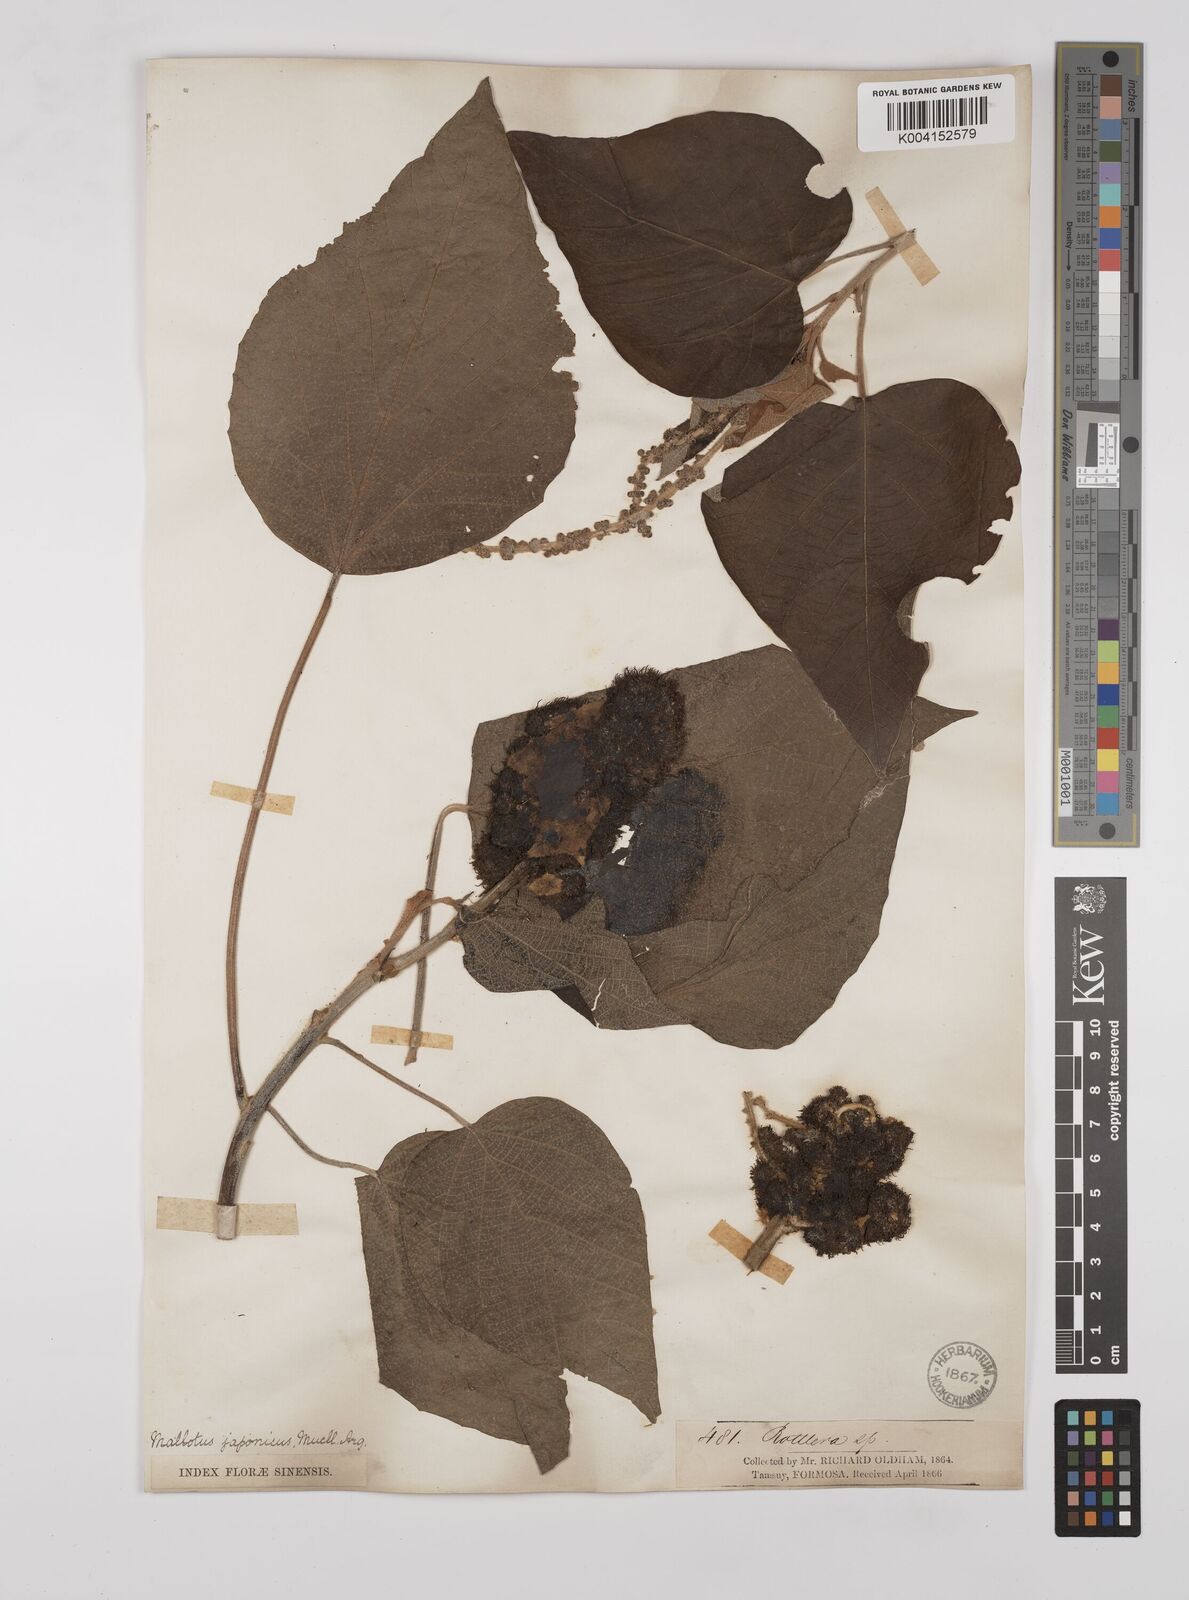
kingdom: Plantae
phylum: Tracheophyta
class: Magnoliopsida
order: Malpighiales
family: Euphorbiaceae
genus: Mallotus
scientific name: Mallotus japonicus
